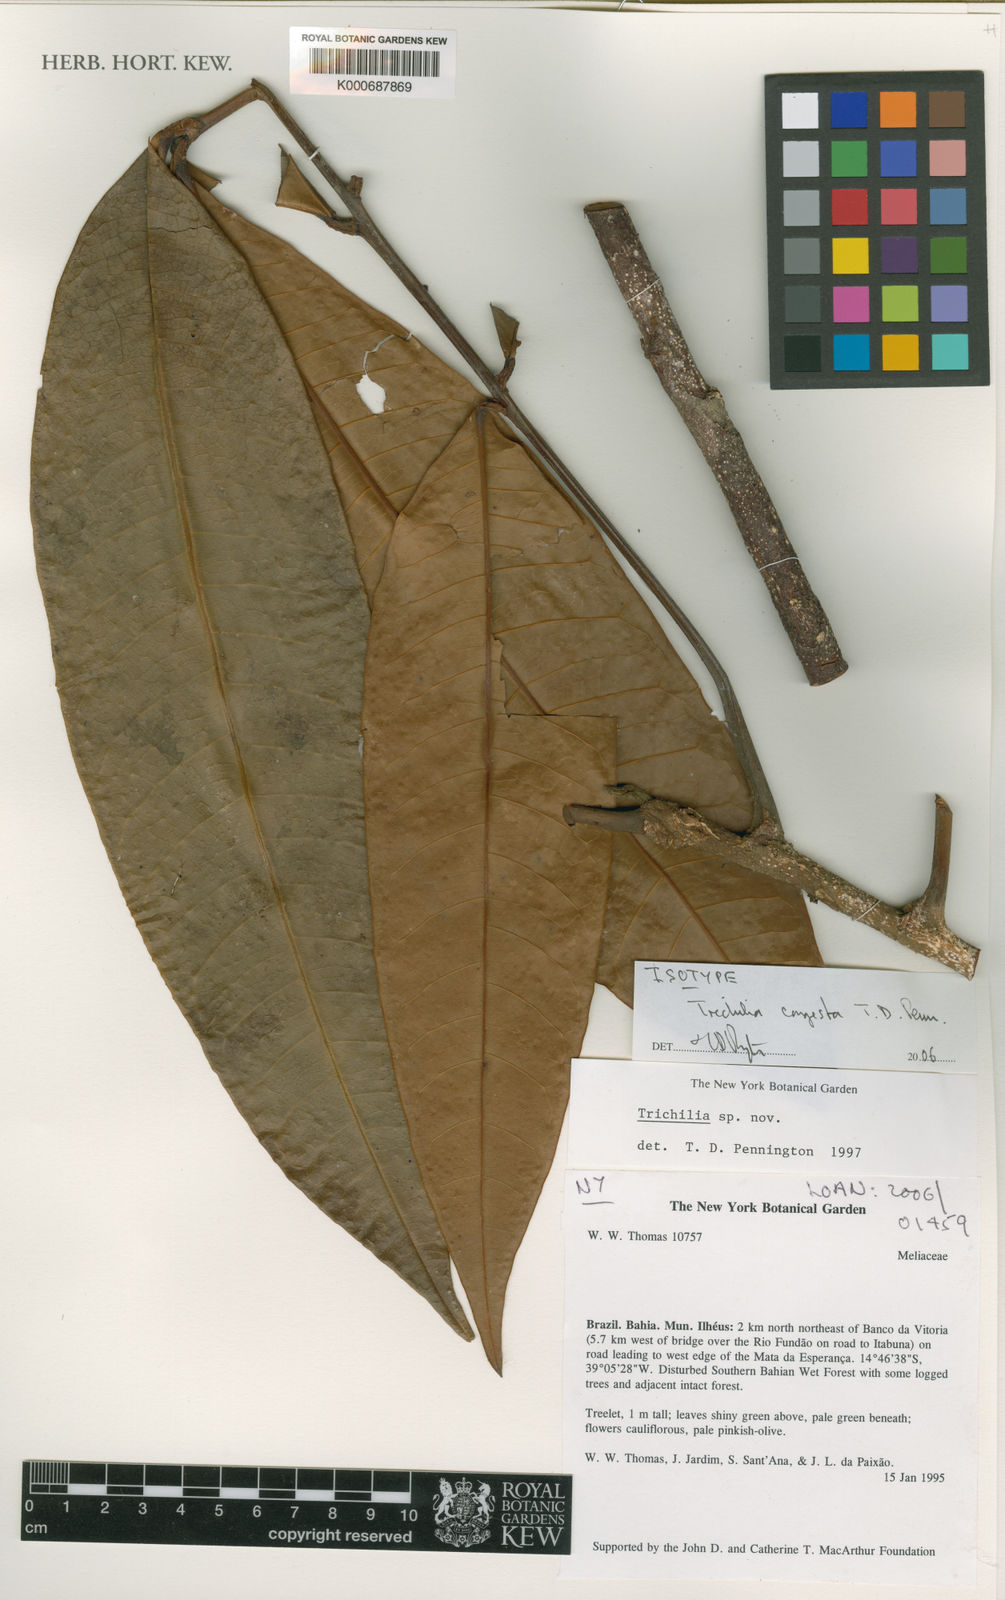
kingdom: Plantae
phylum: Tracheophyta
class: Magnoliopsida
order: Sapindales
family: Meliaceae
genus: Trichilia
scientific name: Trichilia
